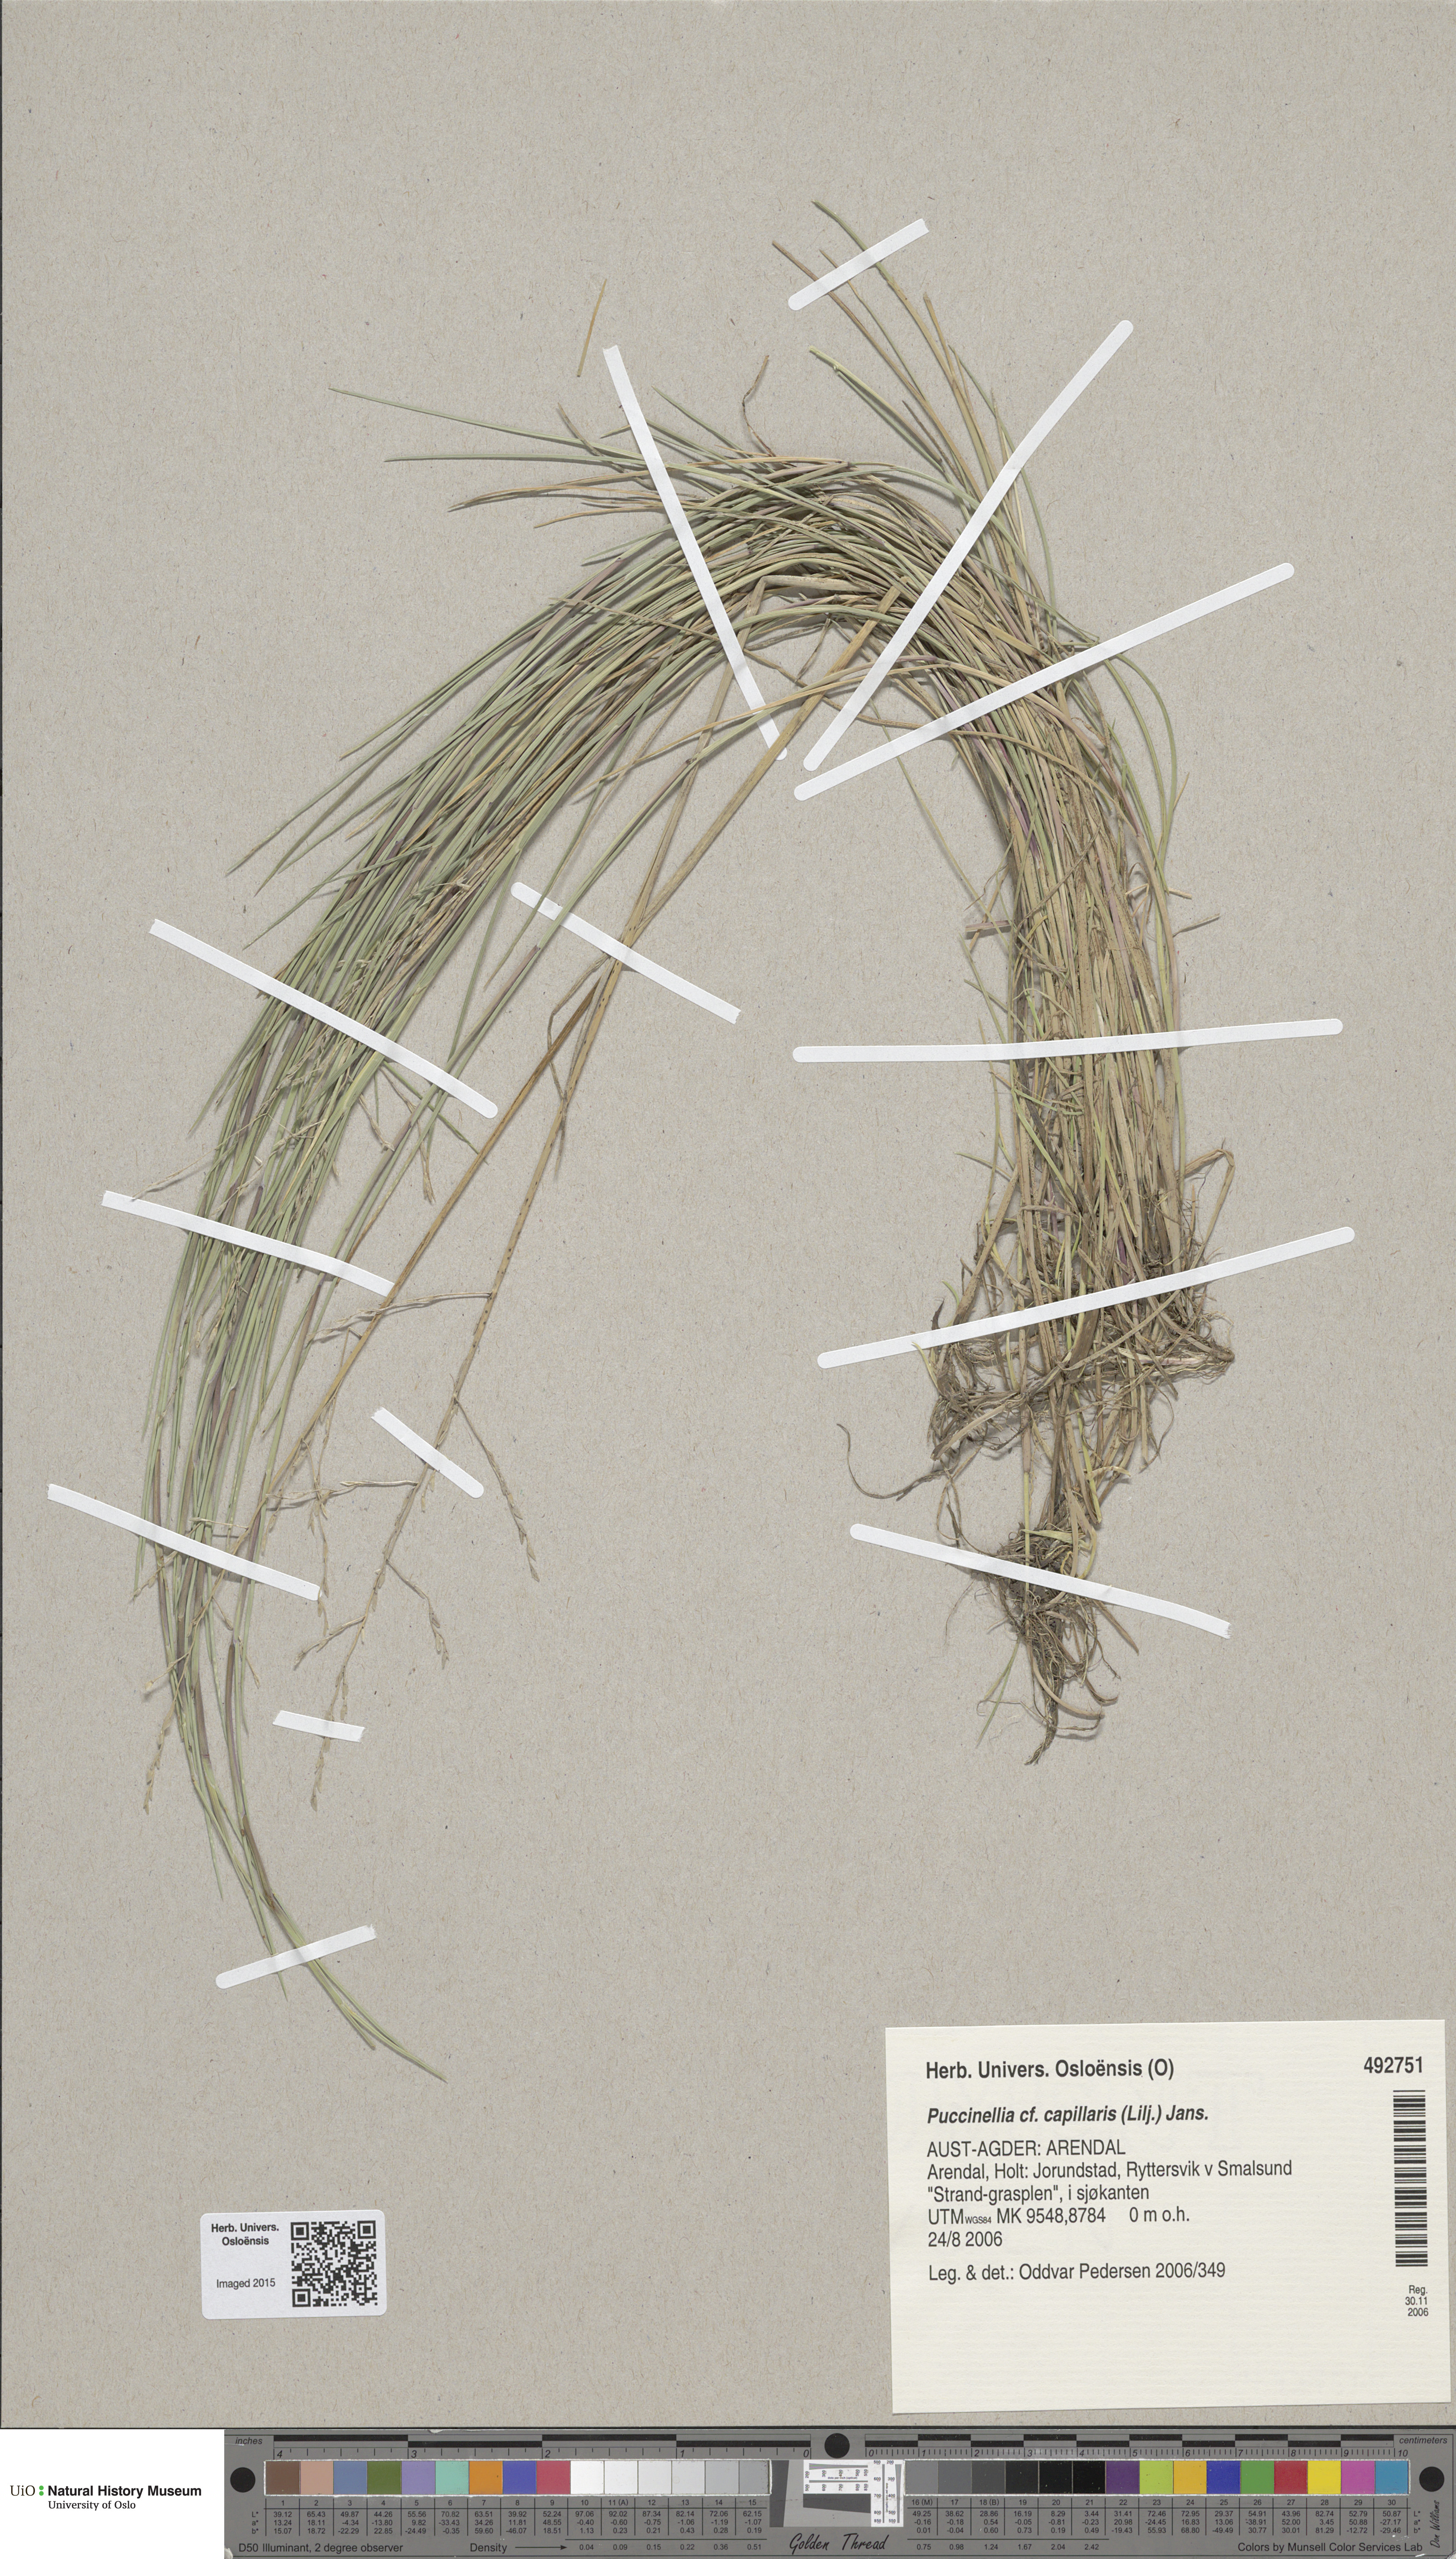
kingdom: Plantae
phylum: Tracheophyta
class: Liliopsida
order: Poales
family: Poaceae
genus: Puccinellia
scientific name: Puccinellia distans
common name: Weeping alkaligrass
